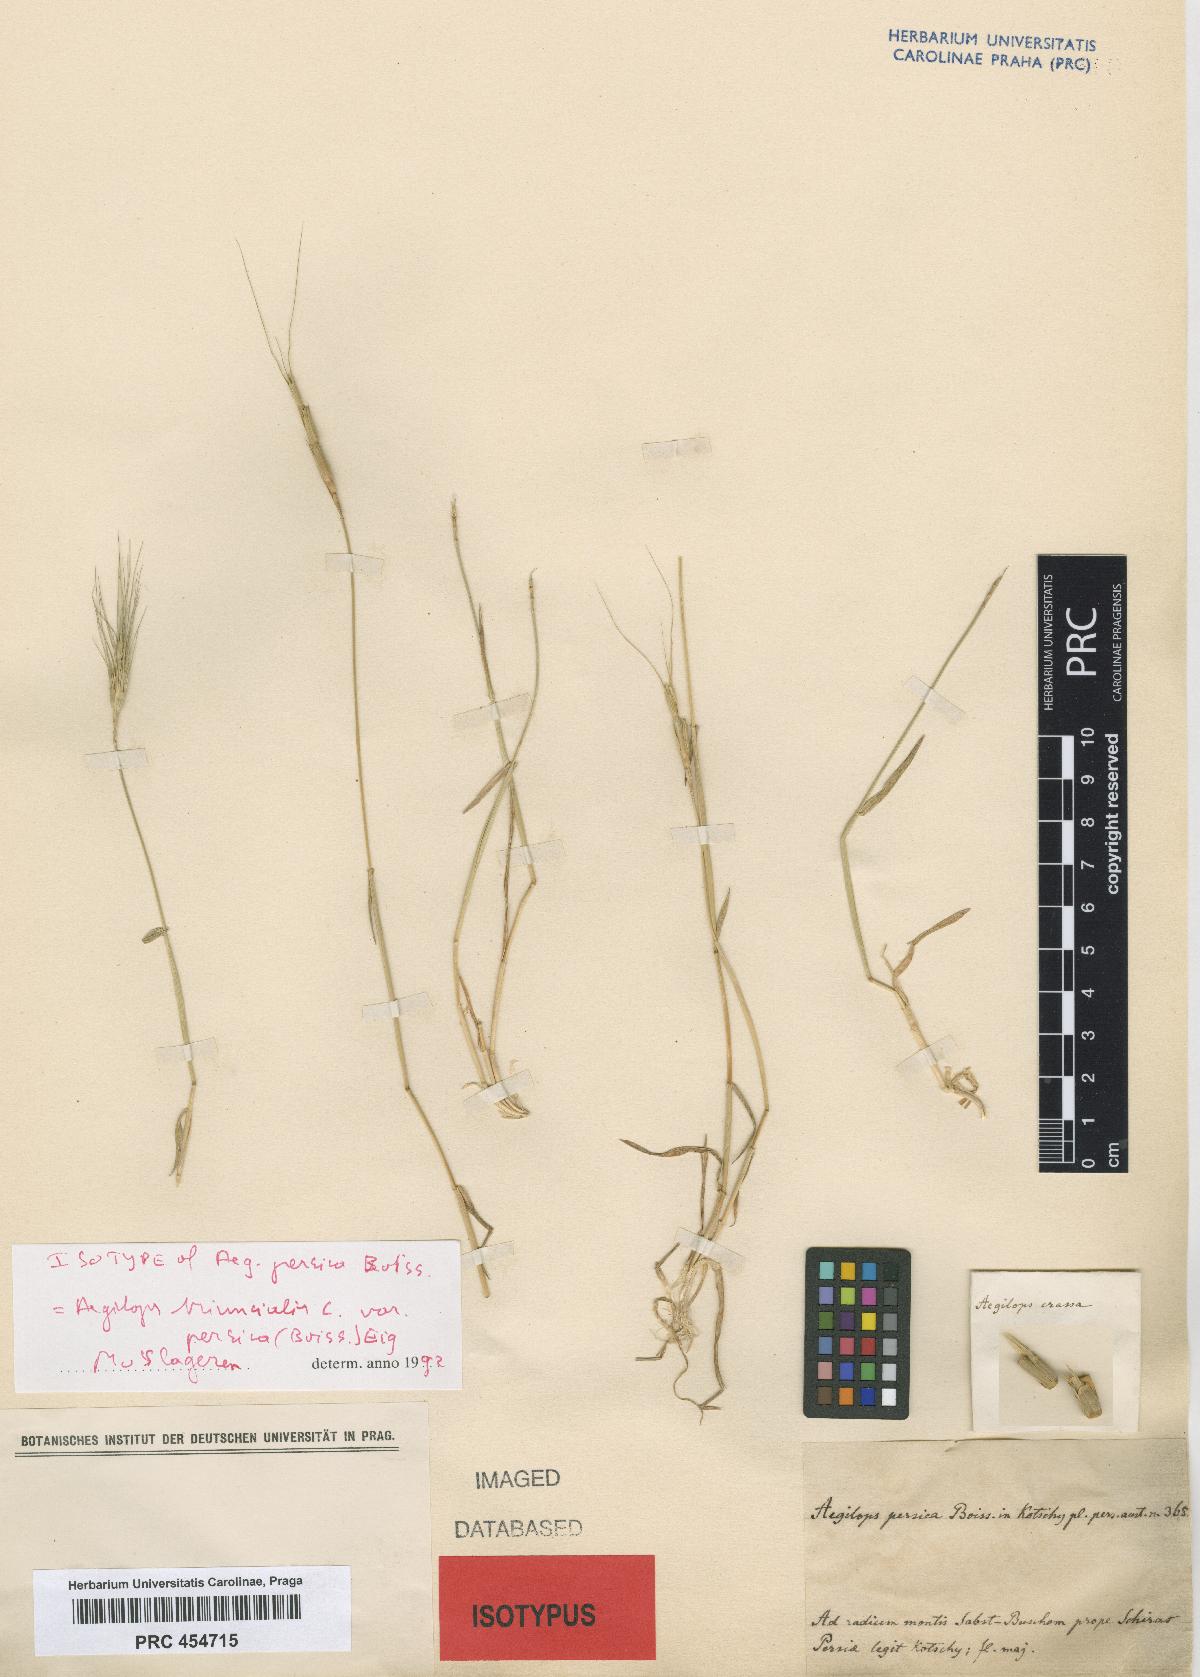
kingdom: Plantae
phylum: Tracheophyta
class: Liliopsida
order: Poales
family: Poaceae
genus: Aegilops
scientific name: Aegilops triuncialis
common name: Barb goat grass
